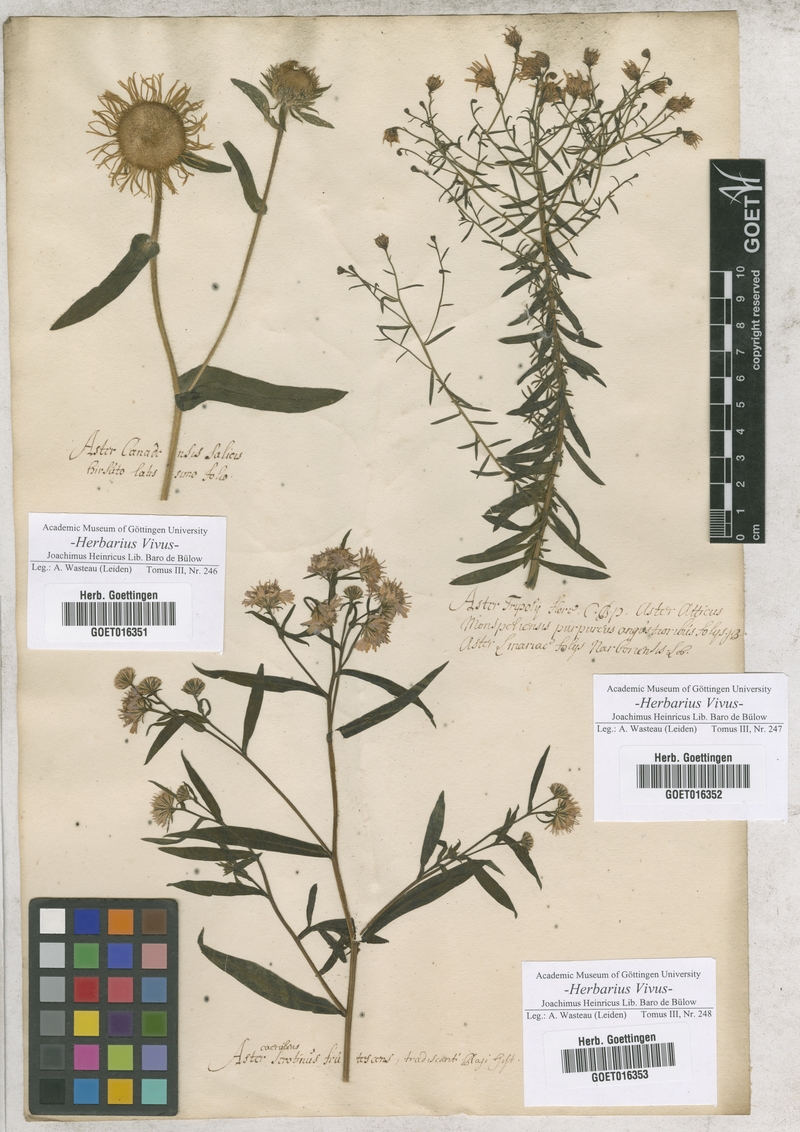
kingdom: Plantae
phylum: Tracheophyta
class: Magnoliopsida
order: Asterales
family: Asteraceae
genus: Aster
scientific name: Aster
